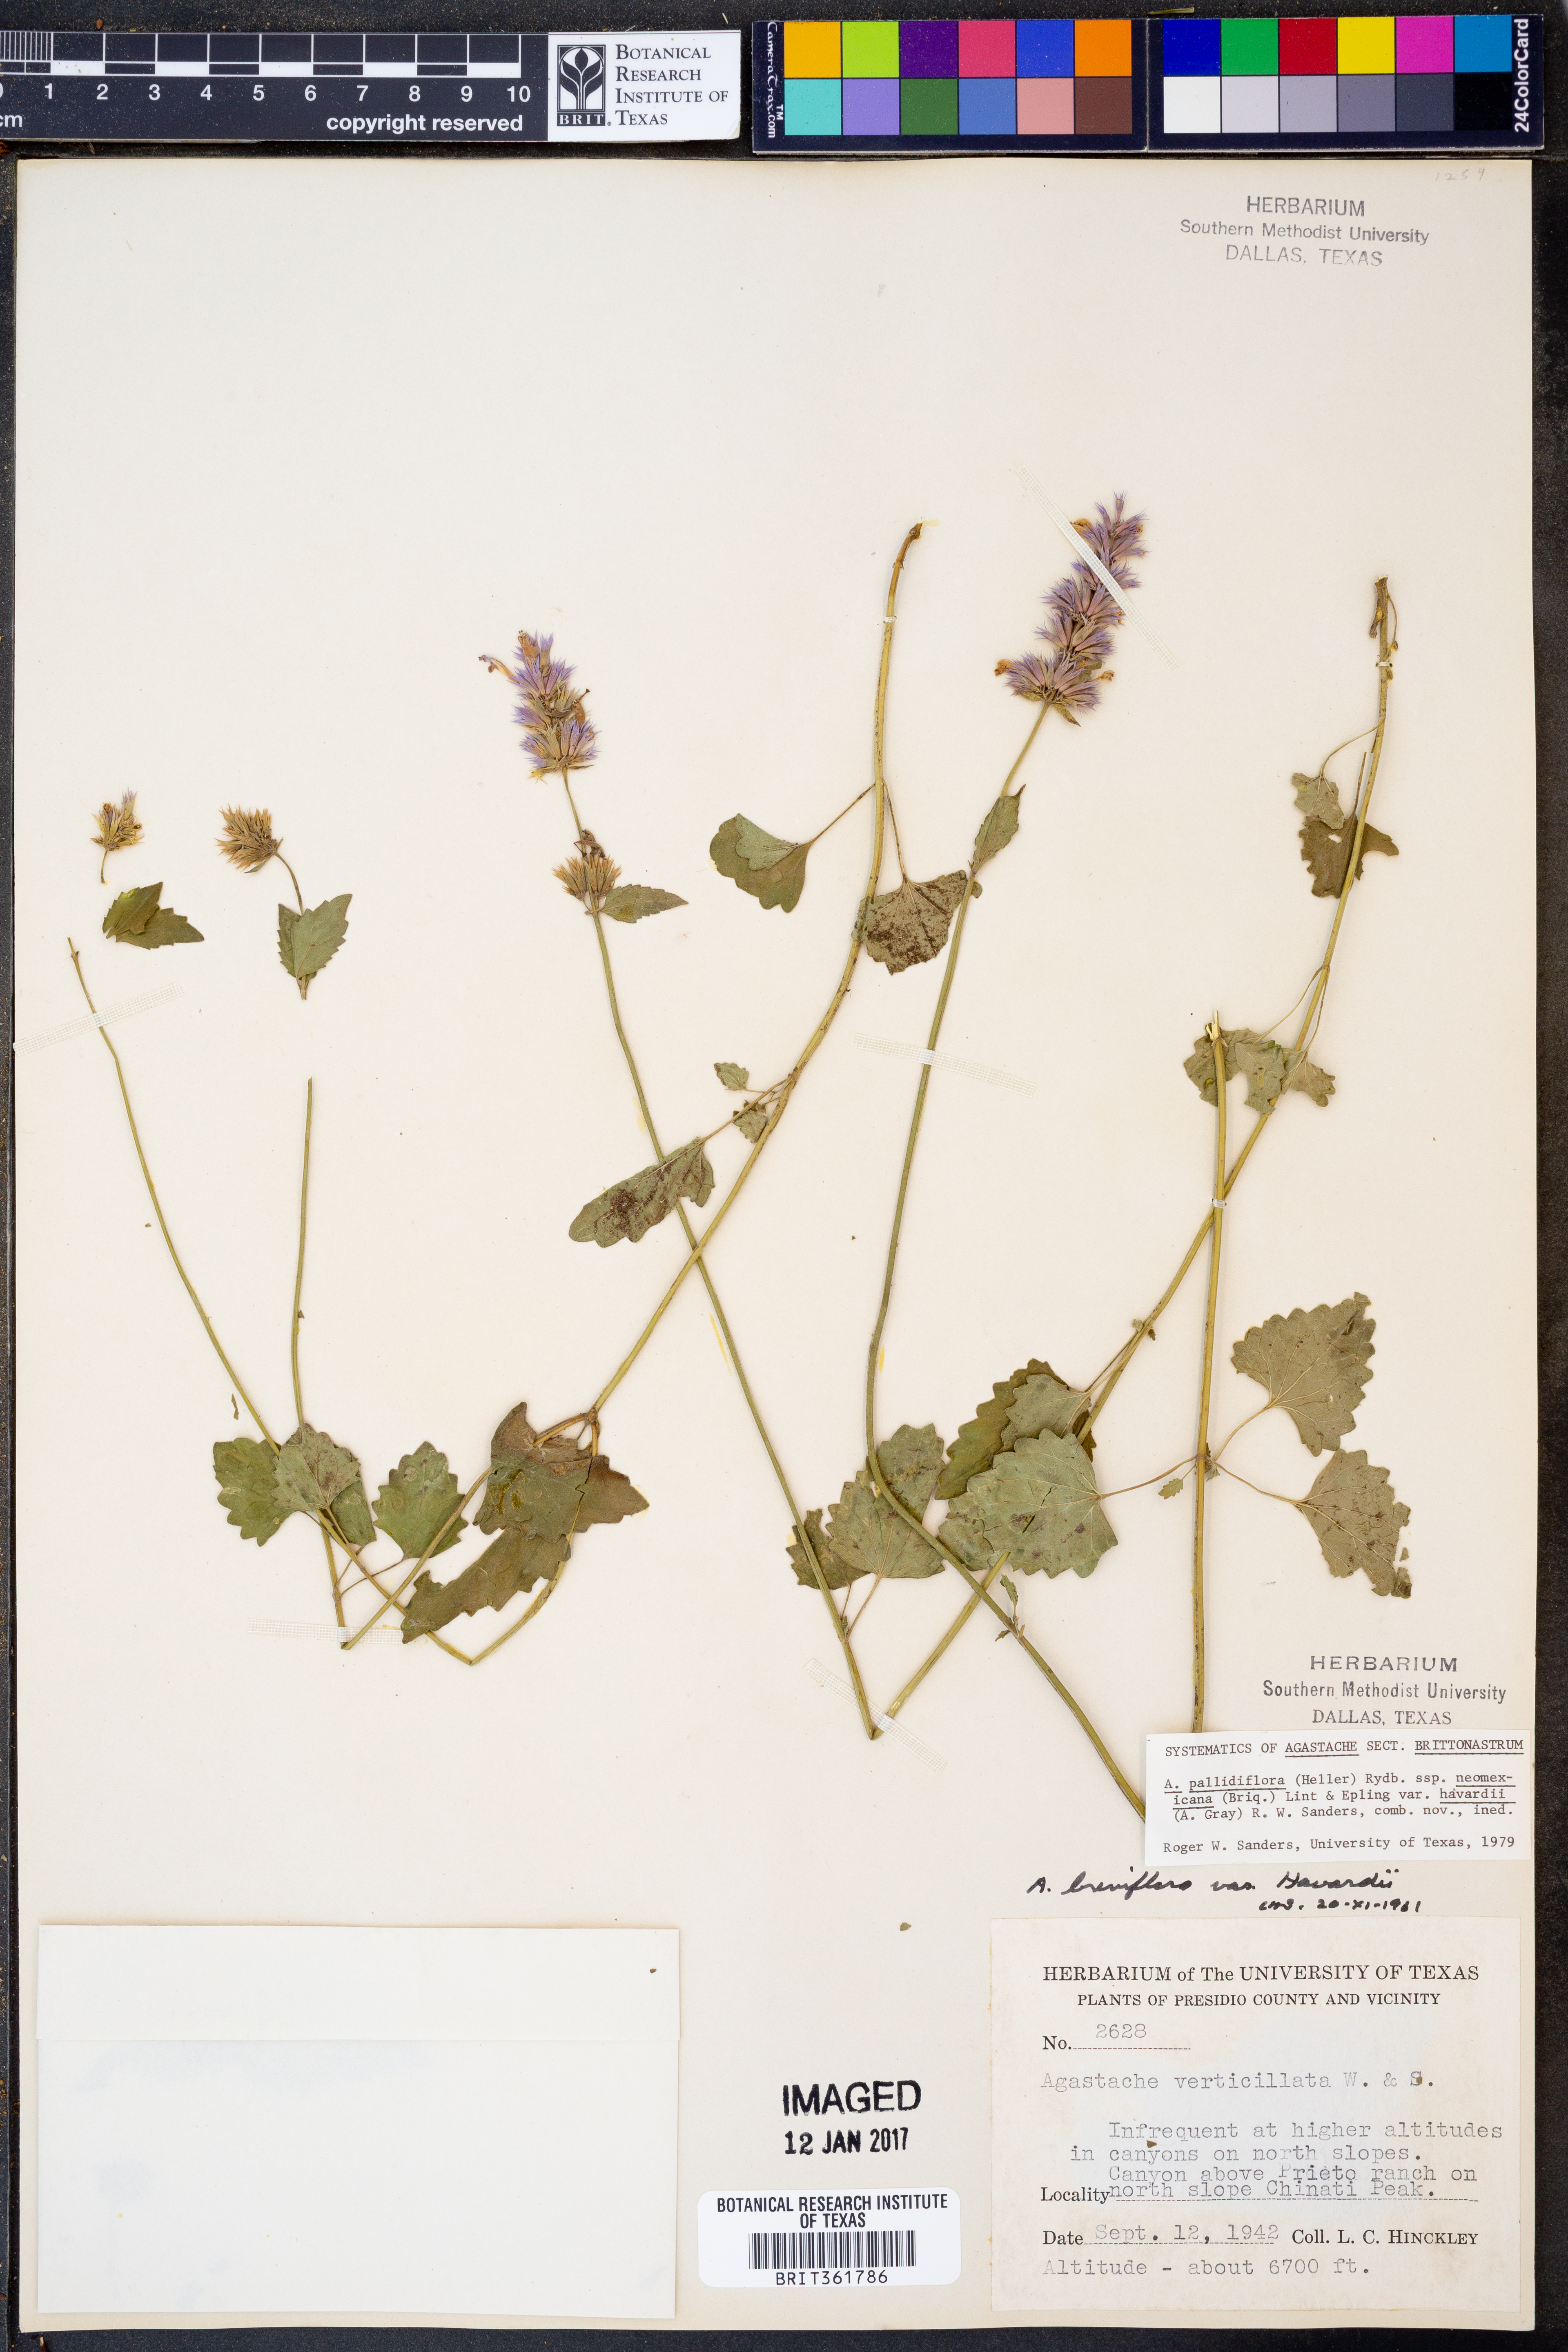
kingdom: Plantae
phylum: Tracheophyta
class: Magnoliopsida
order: Lamiales
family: Lamiaceae
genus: Agastache
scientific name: Agastache pallidiflora
